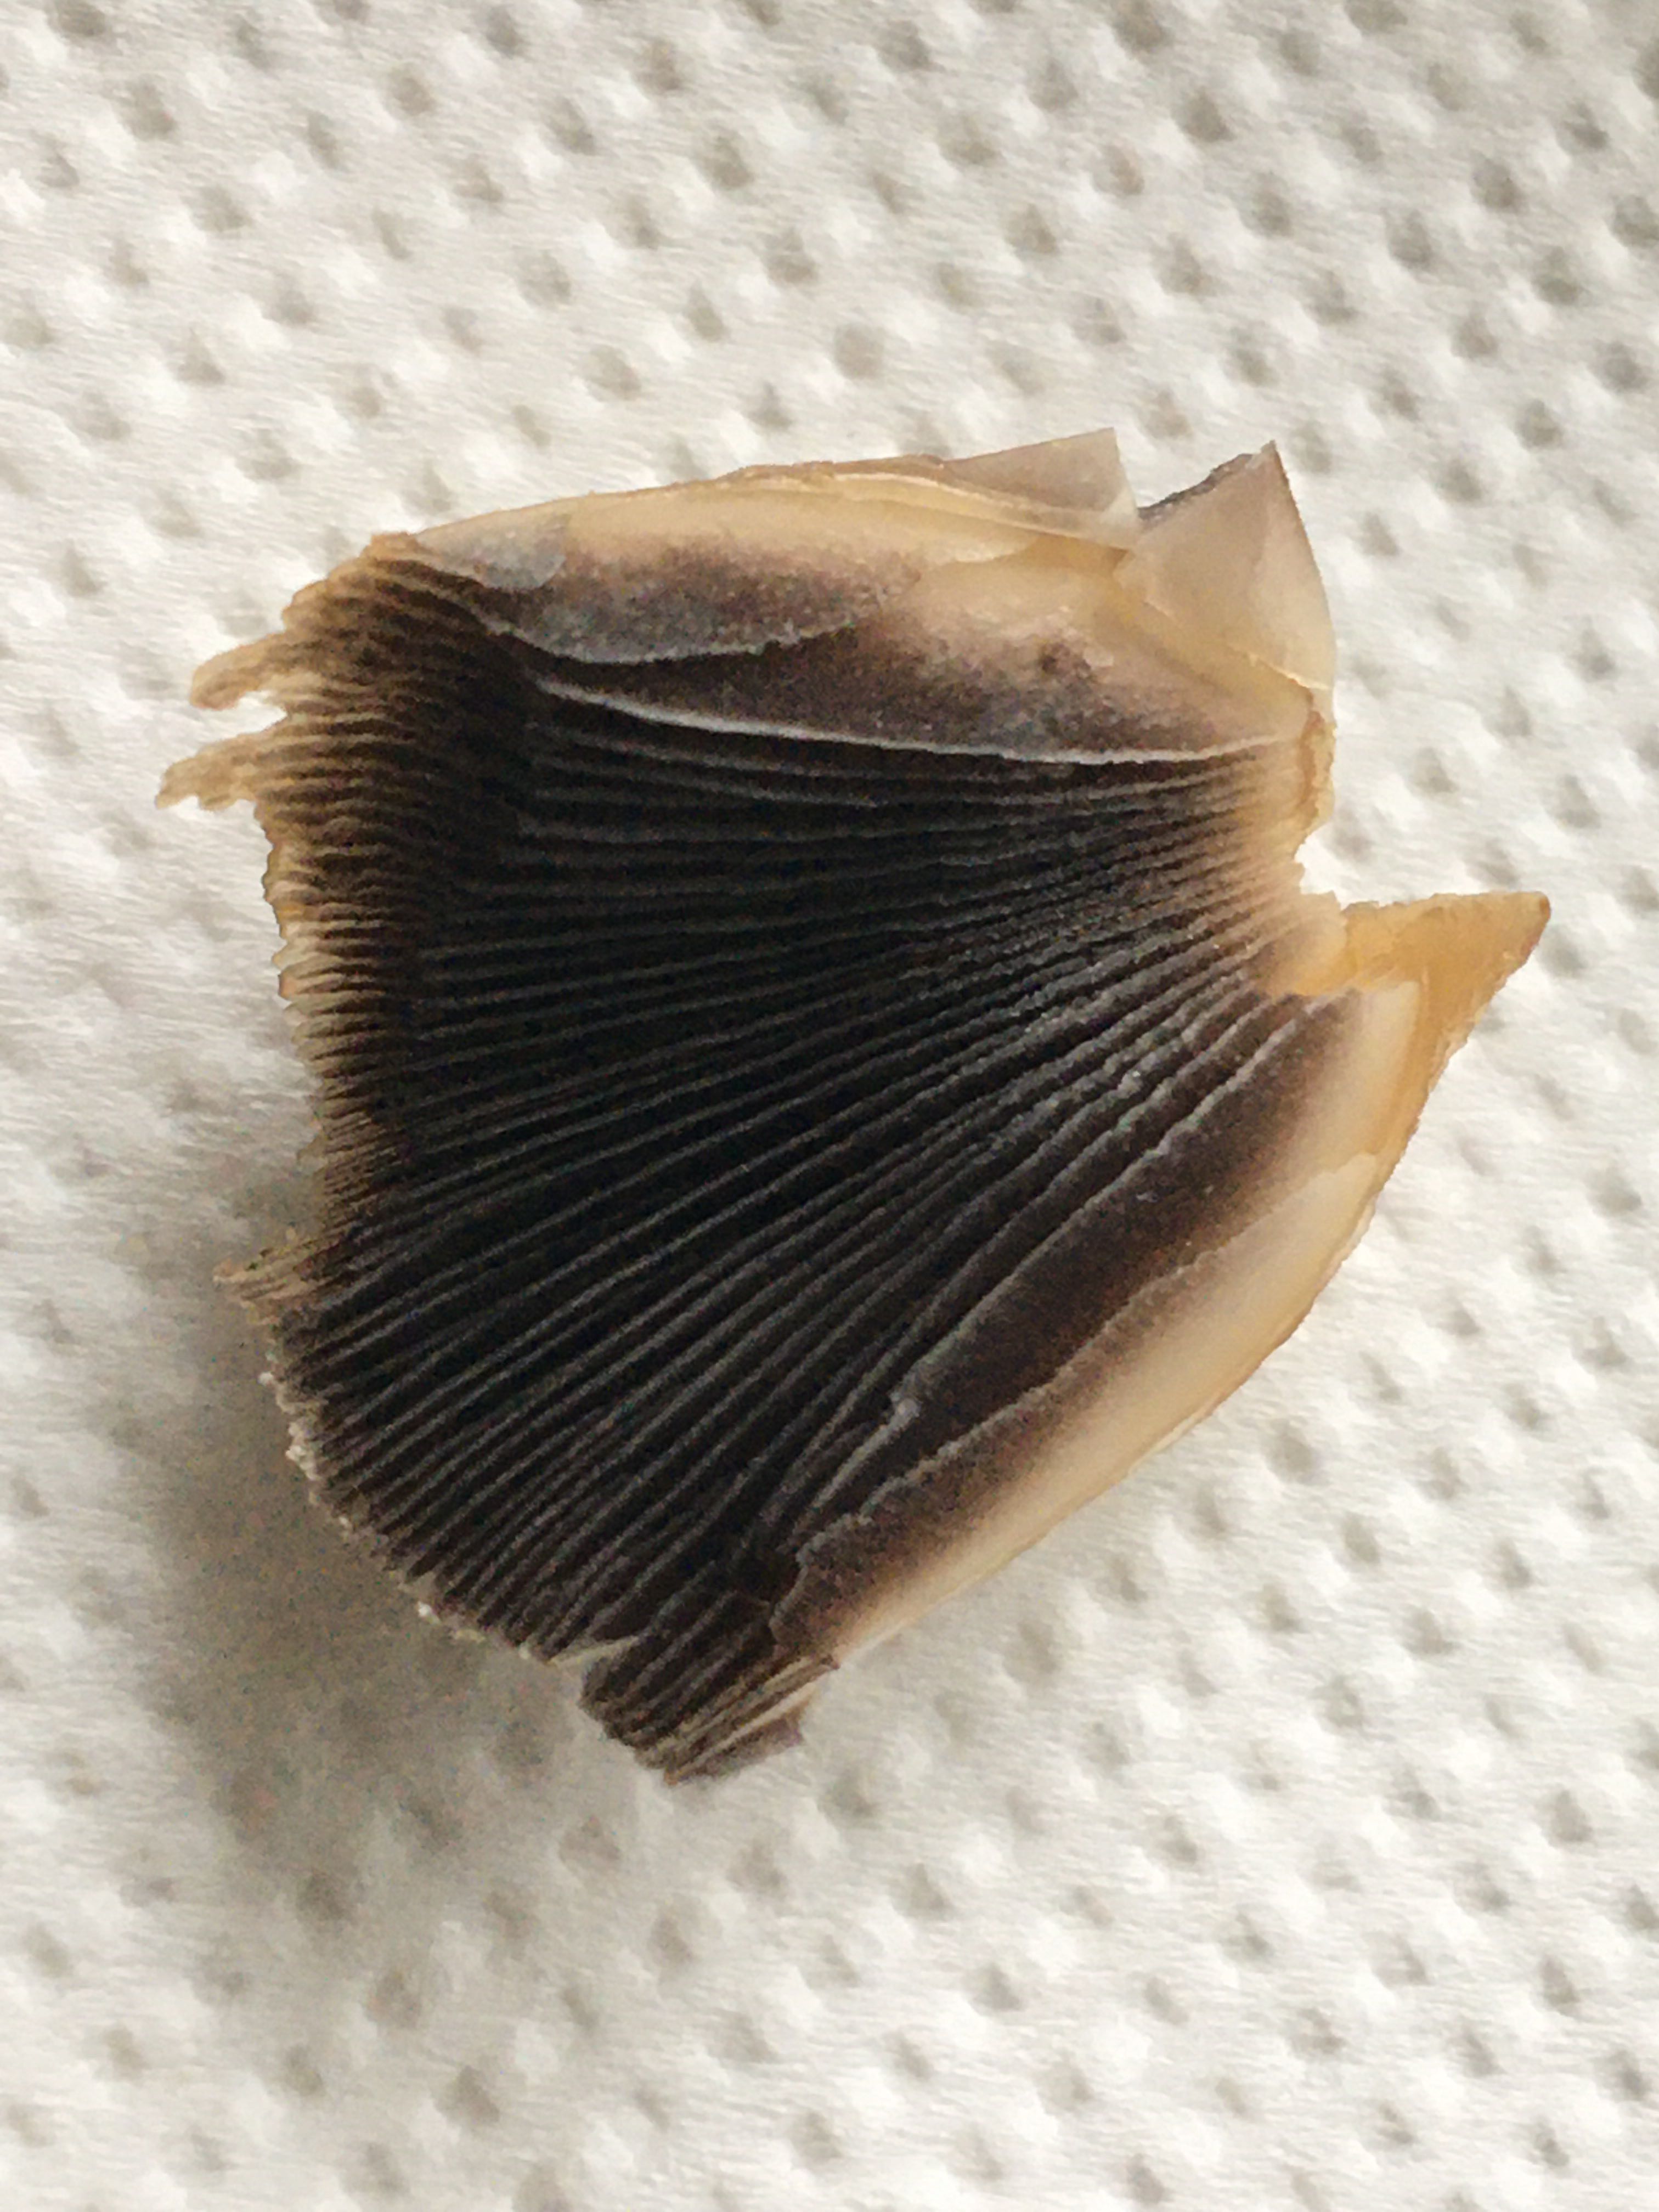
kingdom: Fungi
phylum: Basidiomycota
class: Agaricomycetes
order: Agaricales
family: Psathyrellaceae
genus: Coprinellus
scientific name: Coprinellus
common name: blækhat
